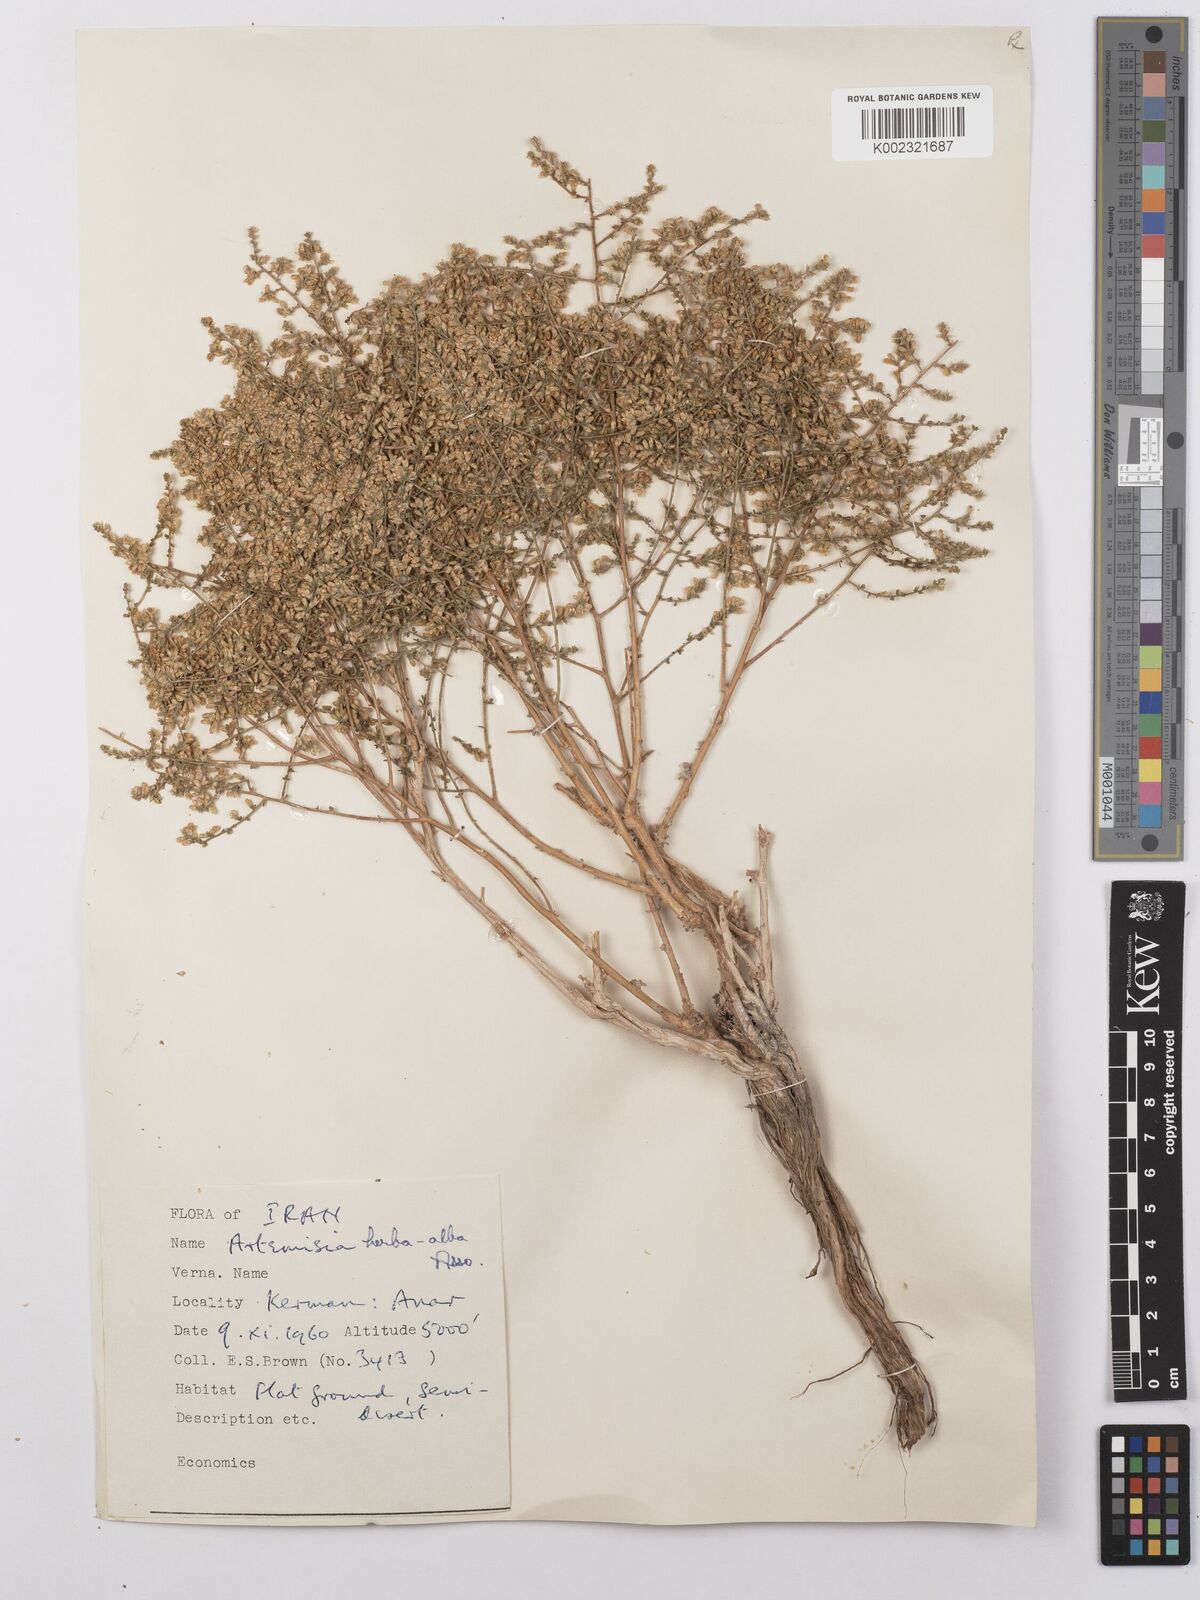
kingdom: Plantae
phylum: Tracheophyta
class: Magnoliopsida
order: Asterales
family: Asteraceae
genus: Artemisia
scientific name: Artemisia herba-alba
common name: White wormwood
